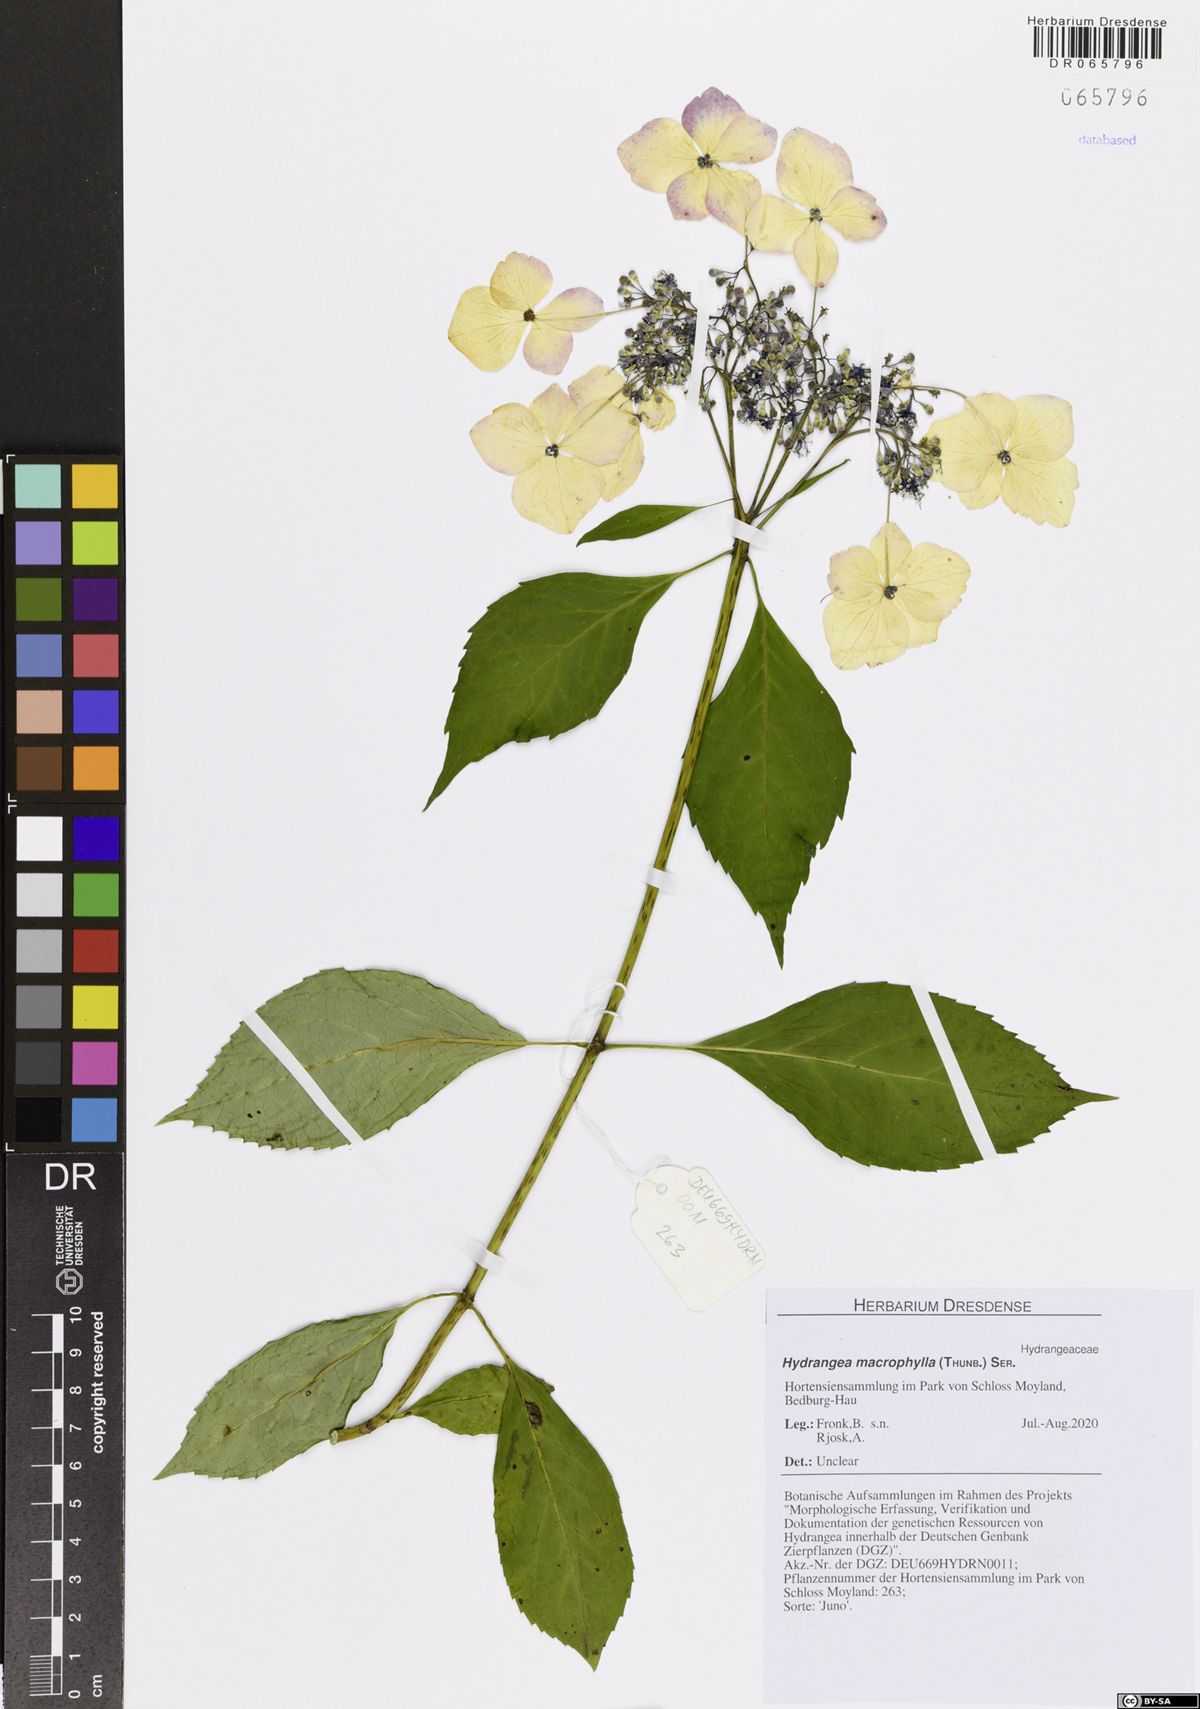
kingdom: Plantae
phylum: Tracheophyta
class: Magnoliopsida
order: Cornales
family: Hydrangeaceae
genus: Hydrangea
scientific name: Hydrangea macrophylla
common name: Hydrangea
